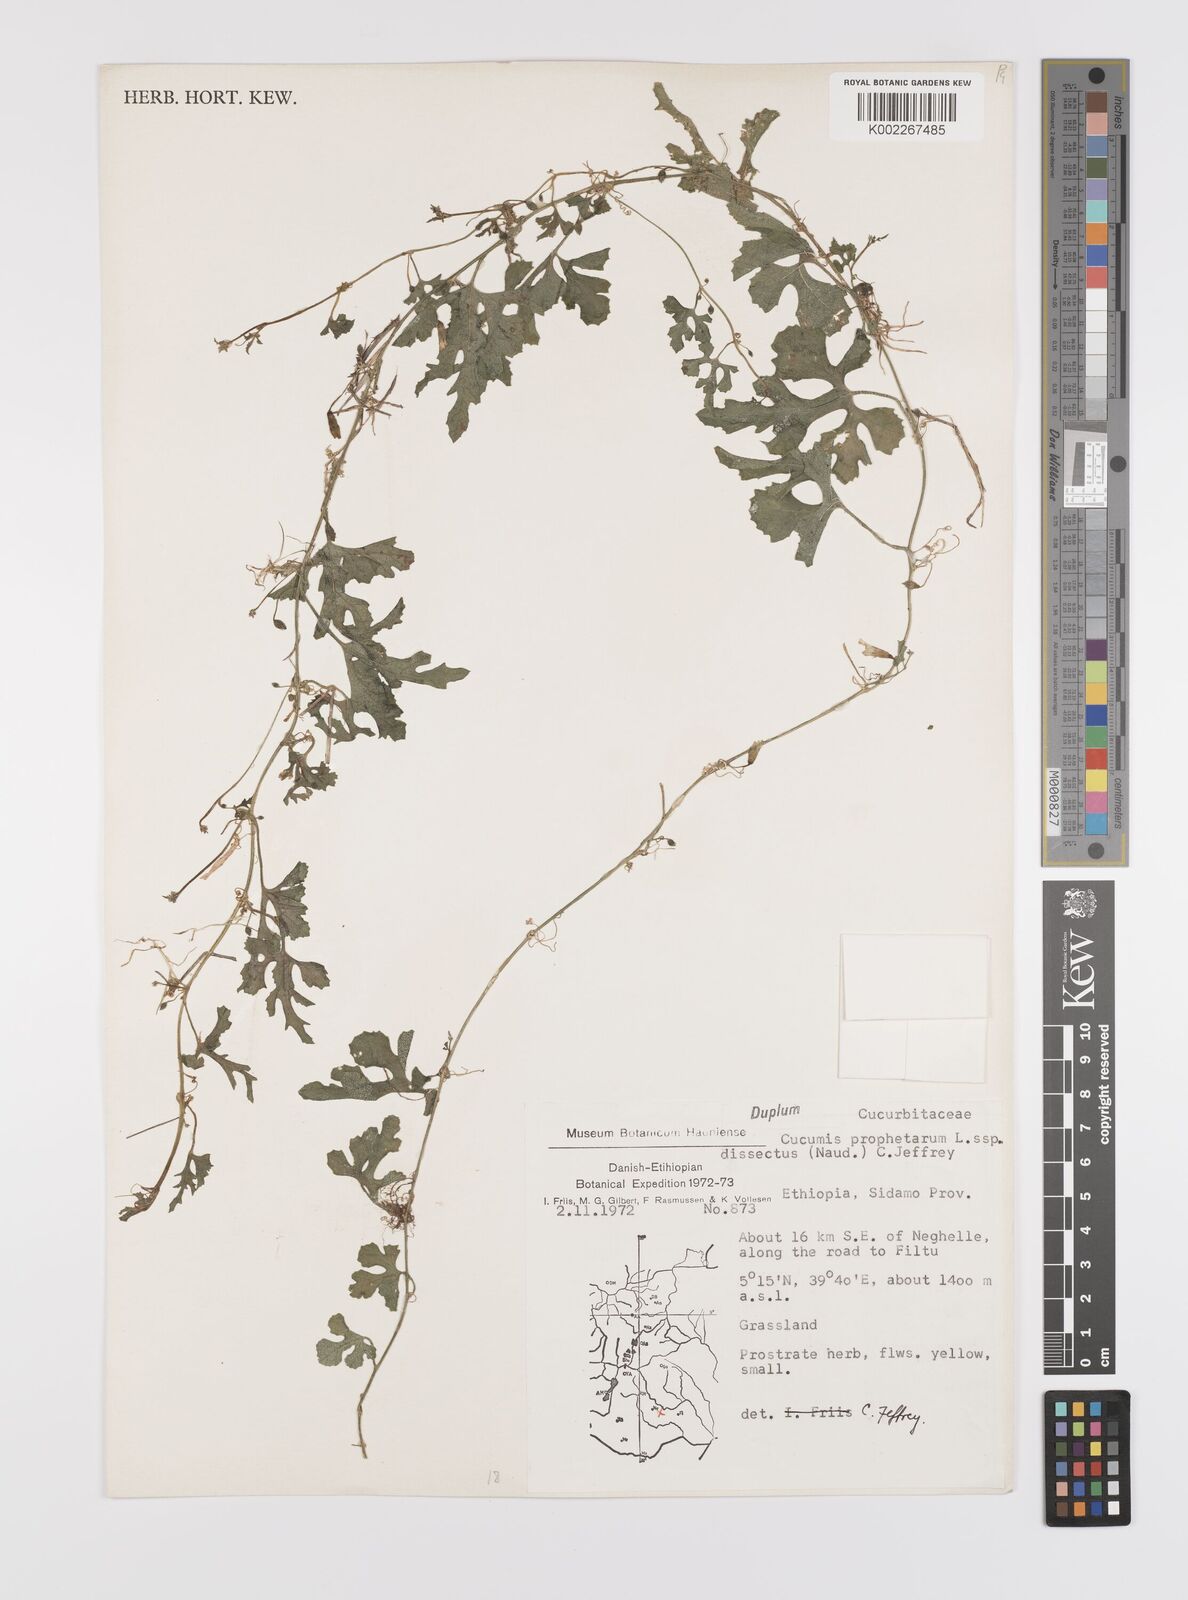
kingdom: Plantae
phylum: Tracheophyta
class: Magnoliopsida
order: Cucurbitales
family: Cucurbitaceae
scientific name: Cucurbitaceae
